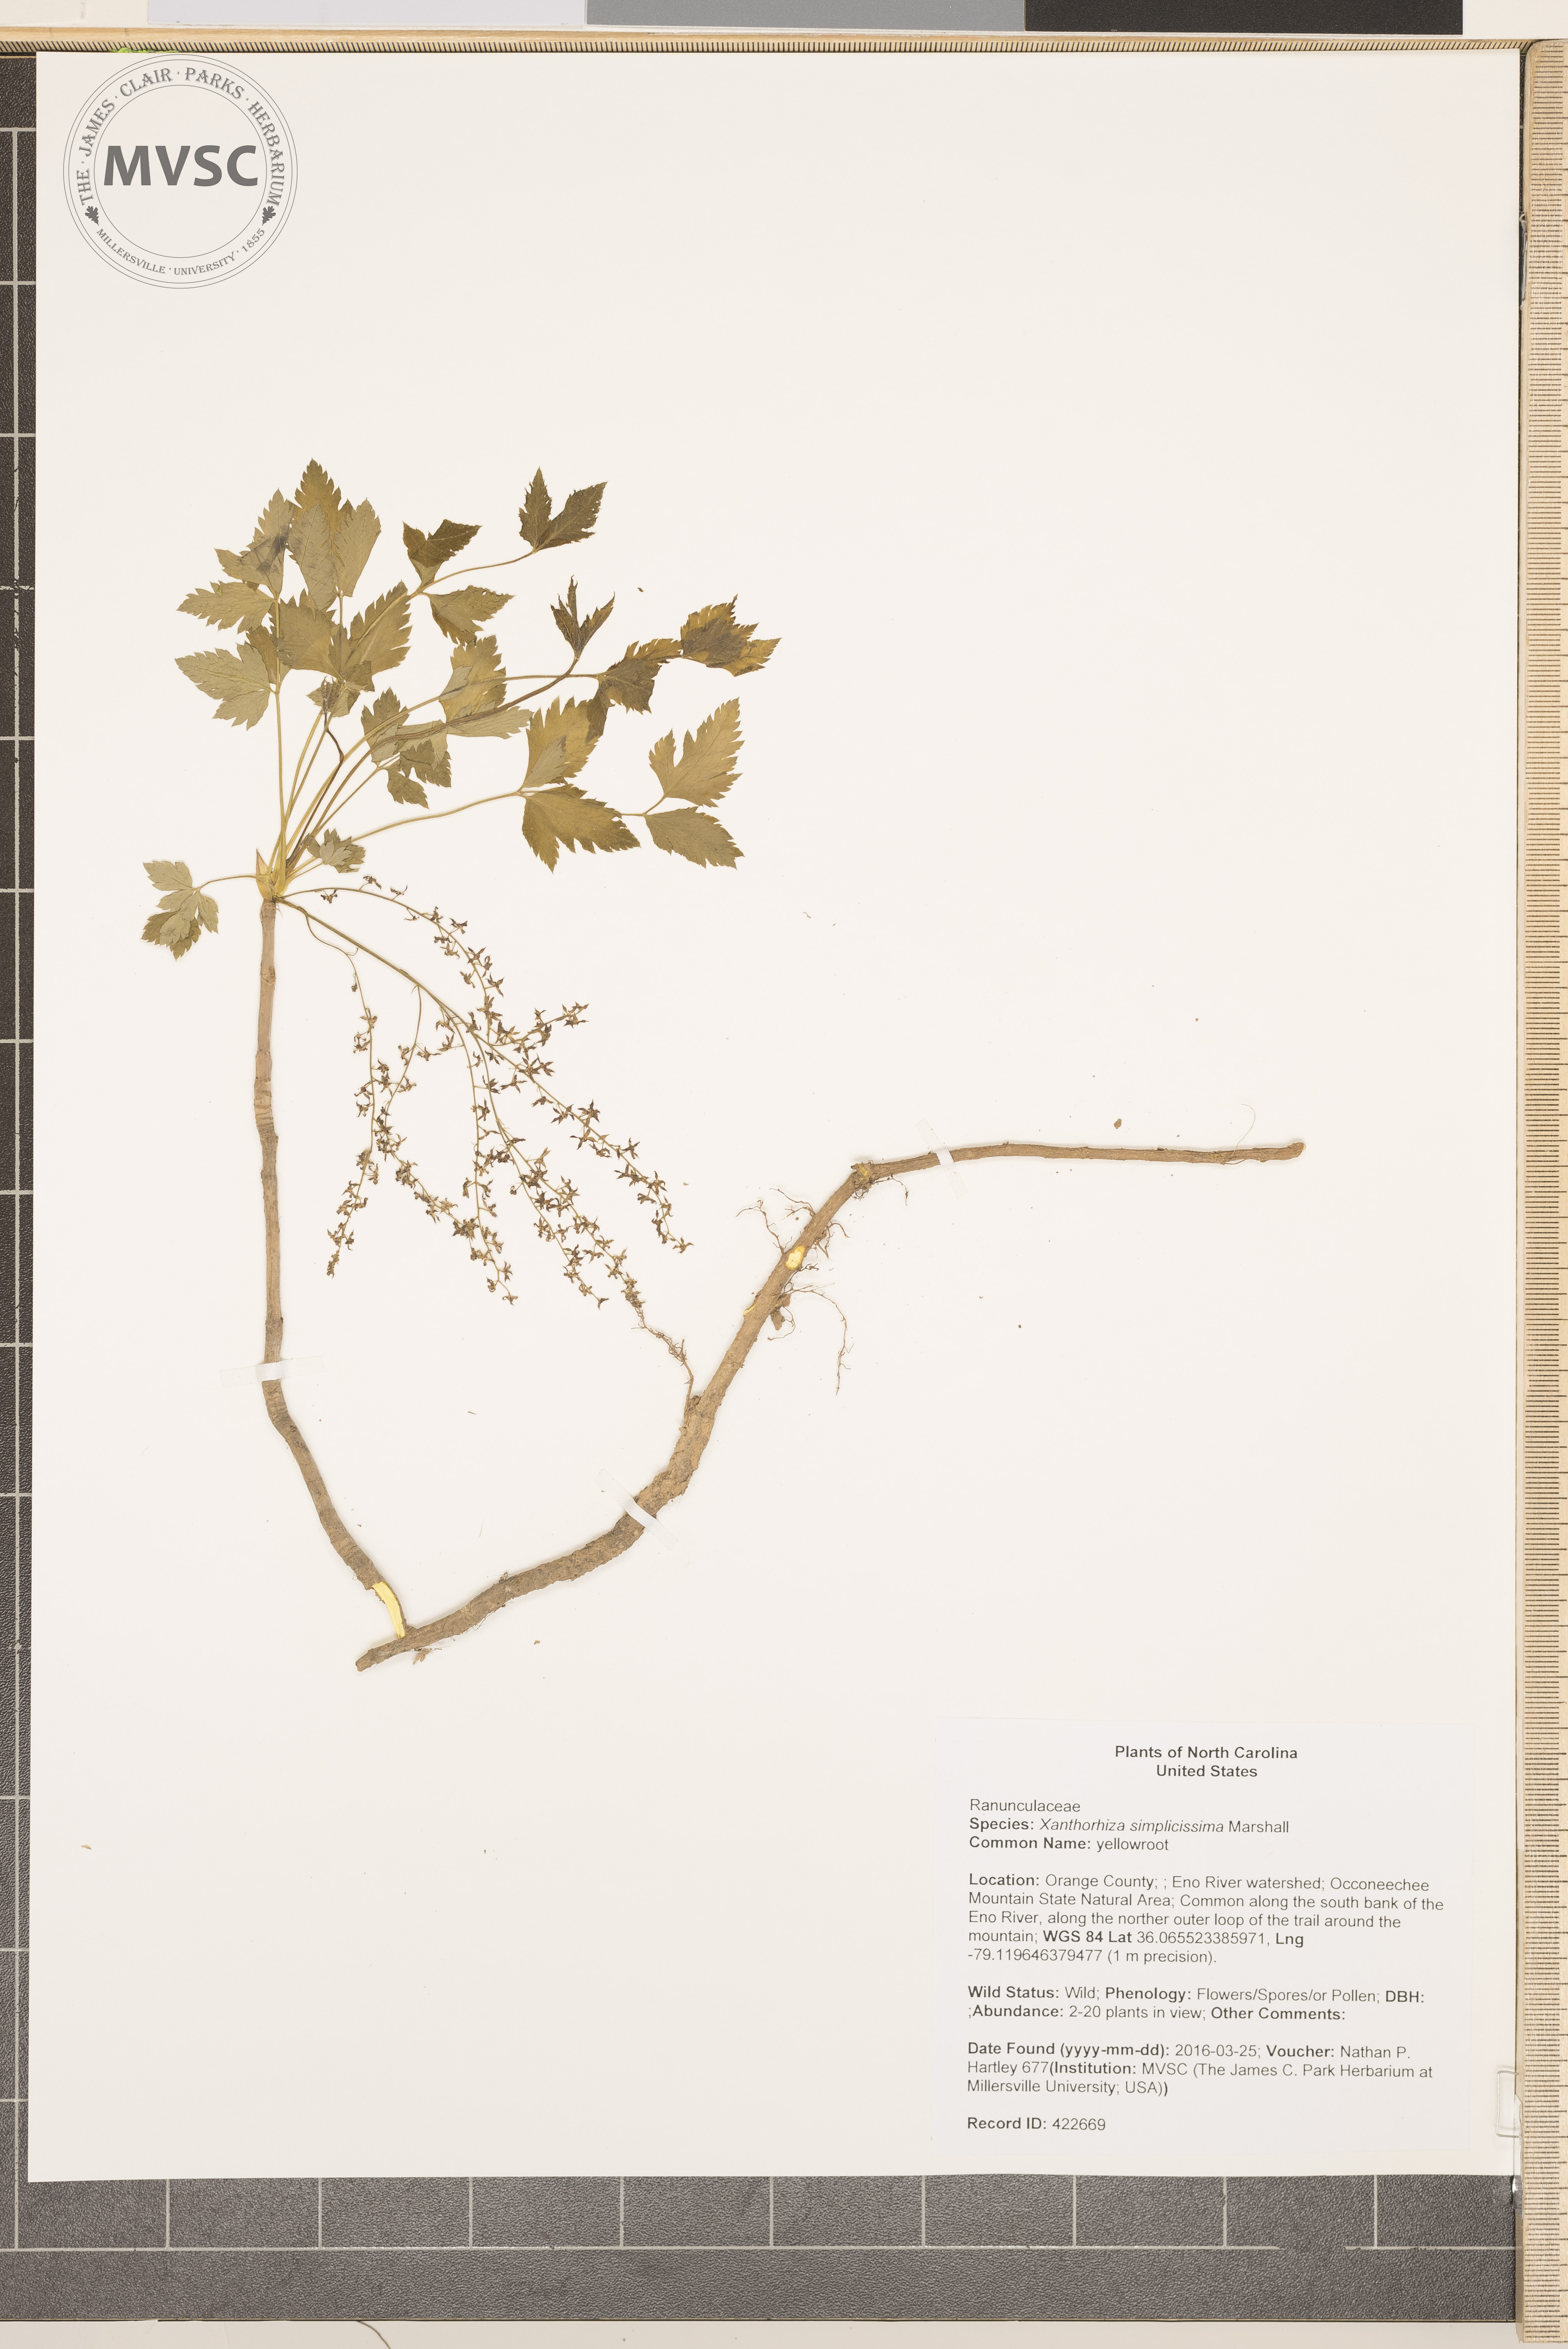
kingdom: Plantae
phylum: Tracheophyta
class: Magnoliopsida
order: Ranunculales
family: Ranunculaceae
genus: Xanthorhiza
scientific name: Xanthorhiza simplicissima
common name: yellowroot
